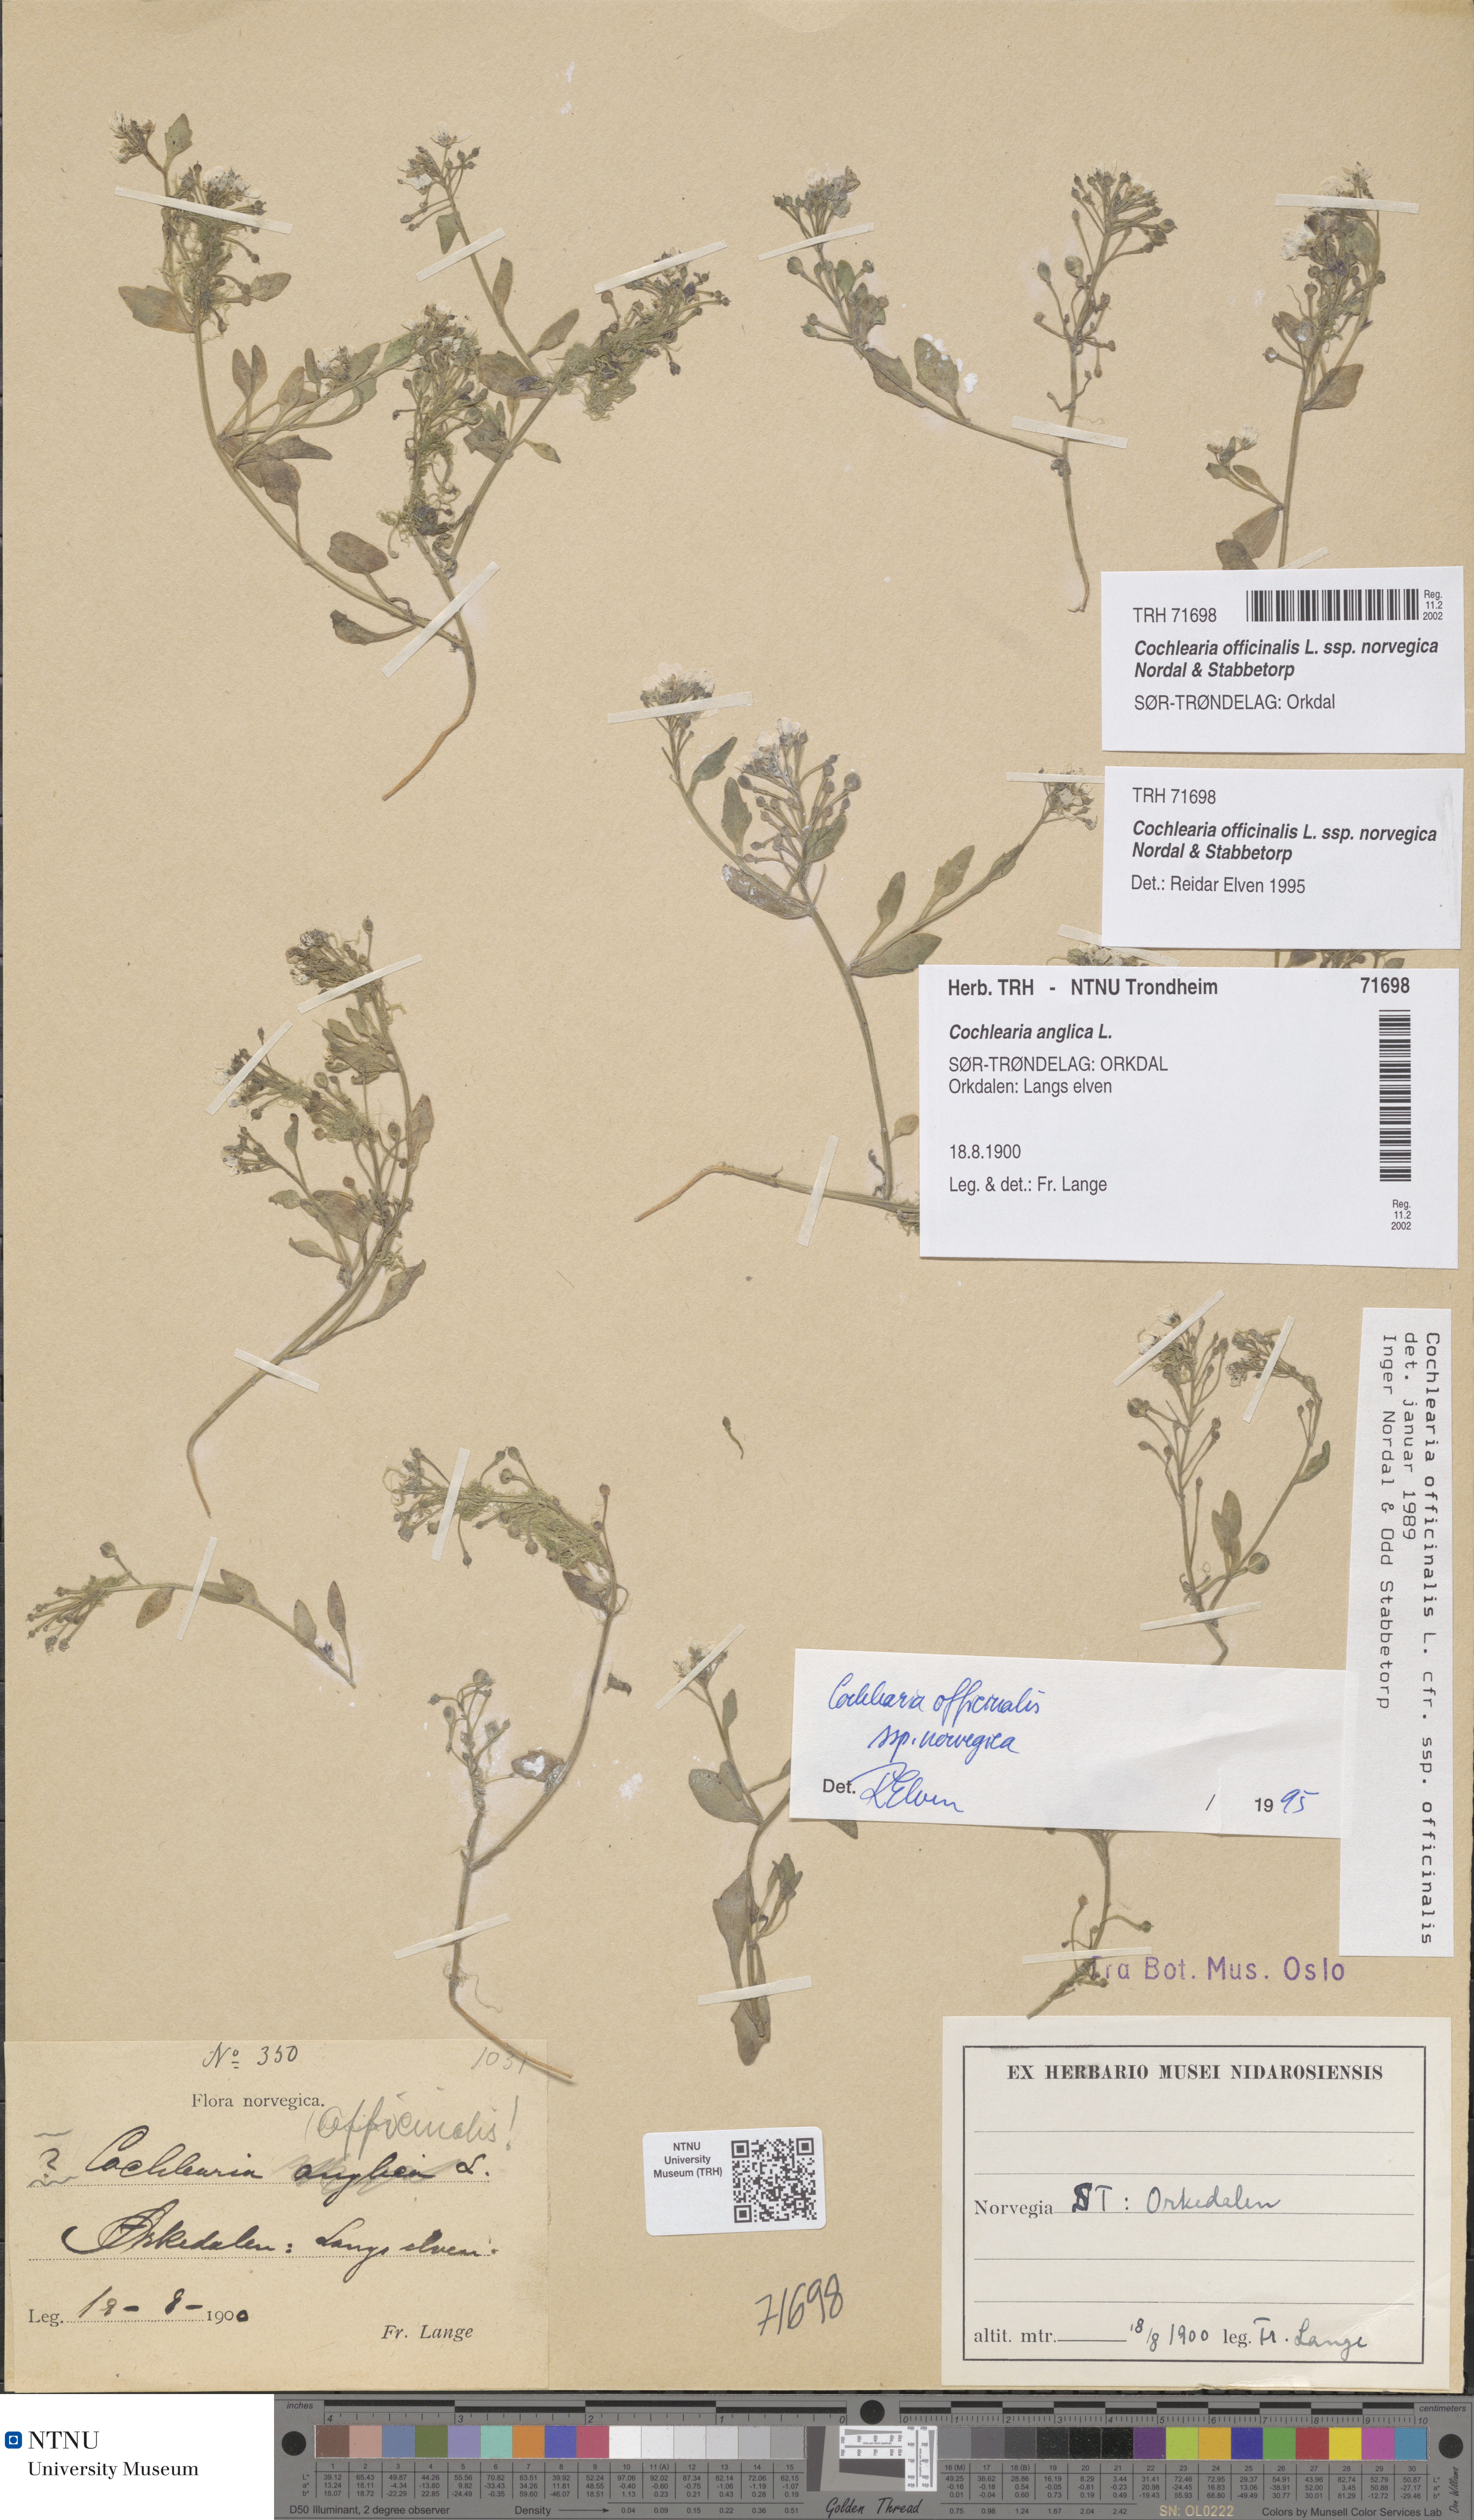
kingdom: Plantae
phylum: Tracheophyta
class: Magnoliopsida
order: Brassicales
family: Brassicaceae
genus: Cochlearia
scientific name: Cochlearia officinalis
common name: Scurvy-grass
